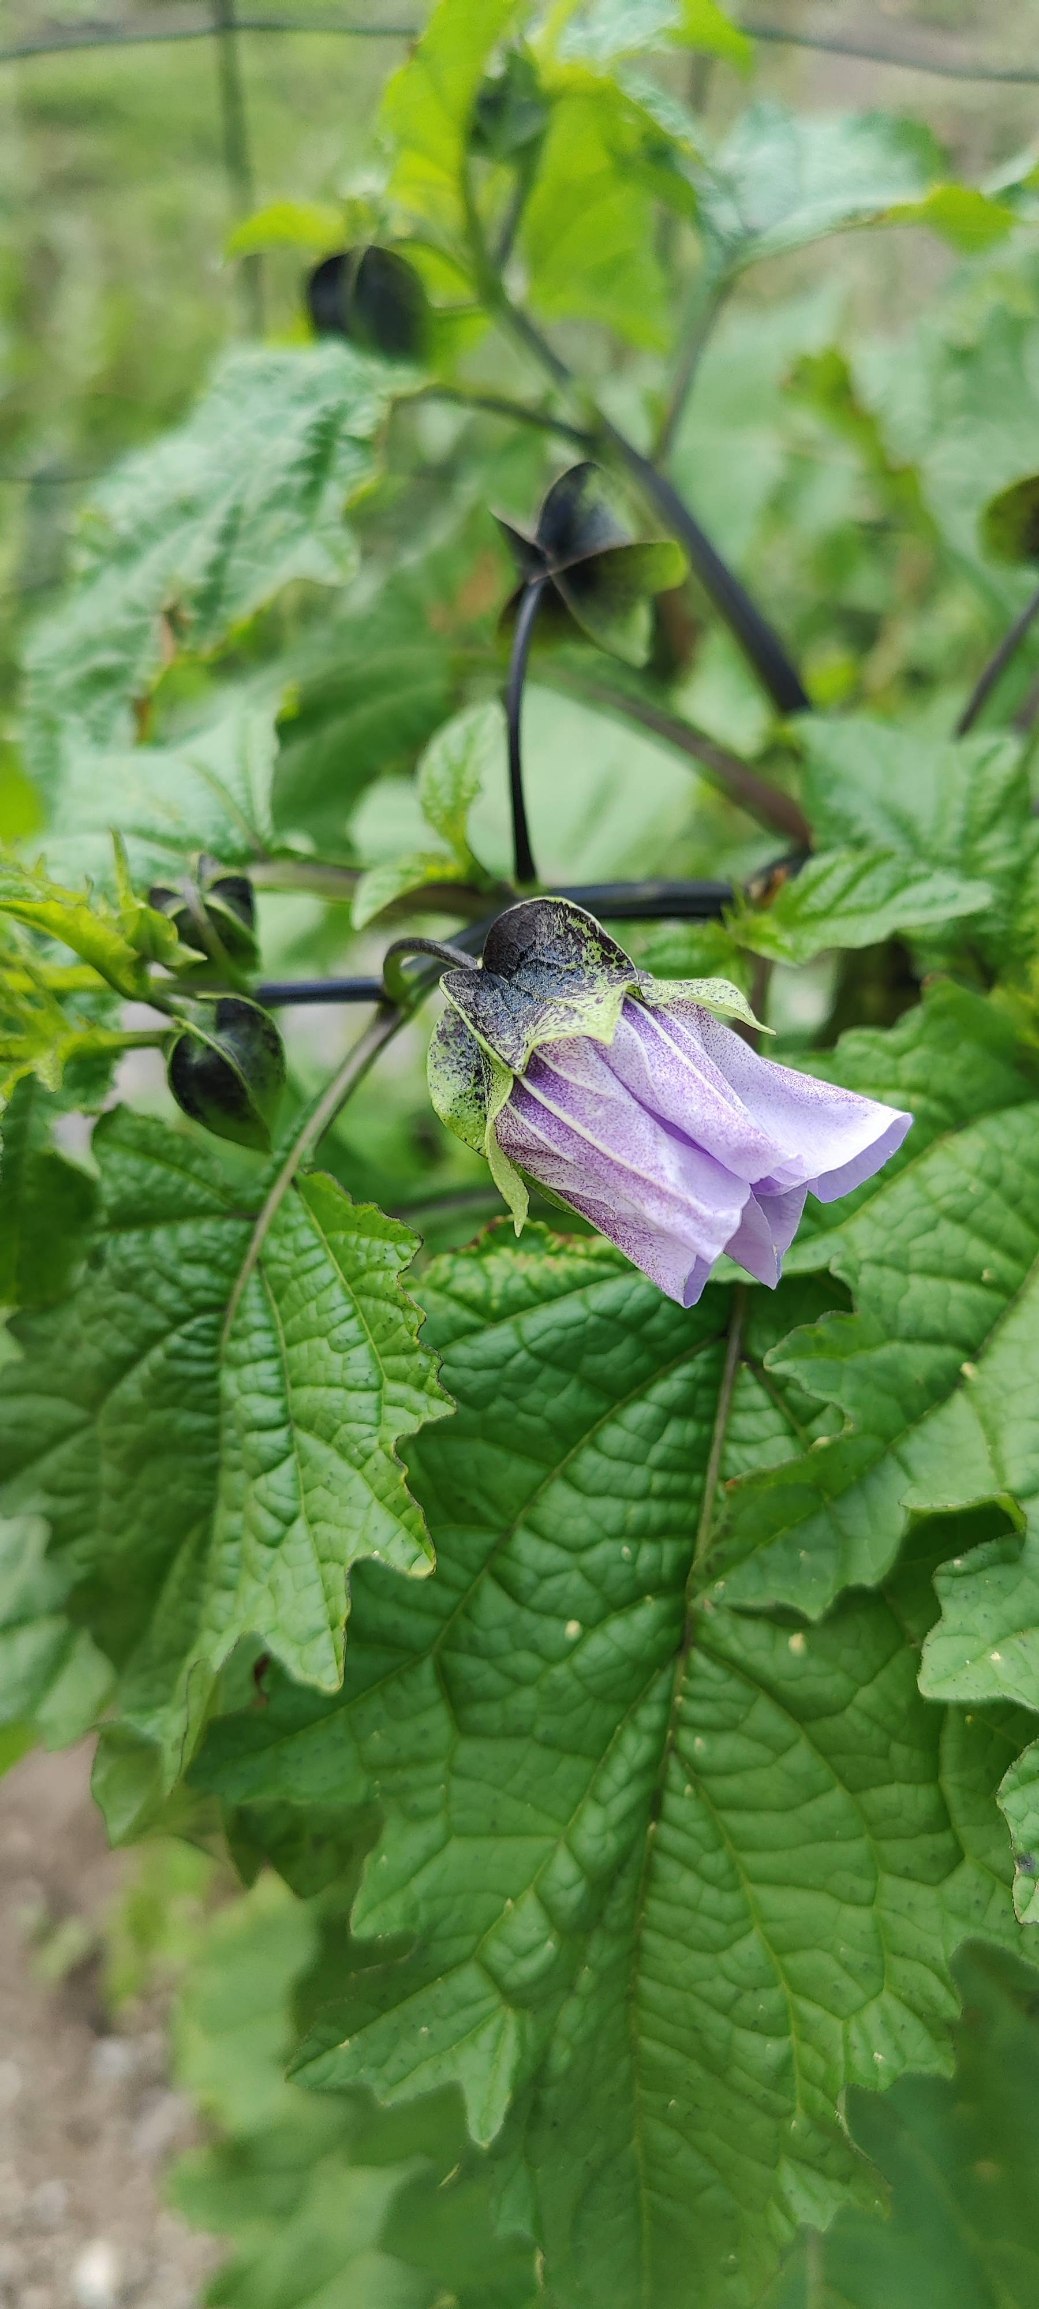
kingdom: Plantae
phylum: Tracheophyta
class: Magnoliopsida
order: Solanales
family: Solanaceae
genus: Nicandra
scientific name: Nicandra physalodes
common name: Kantbæger
